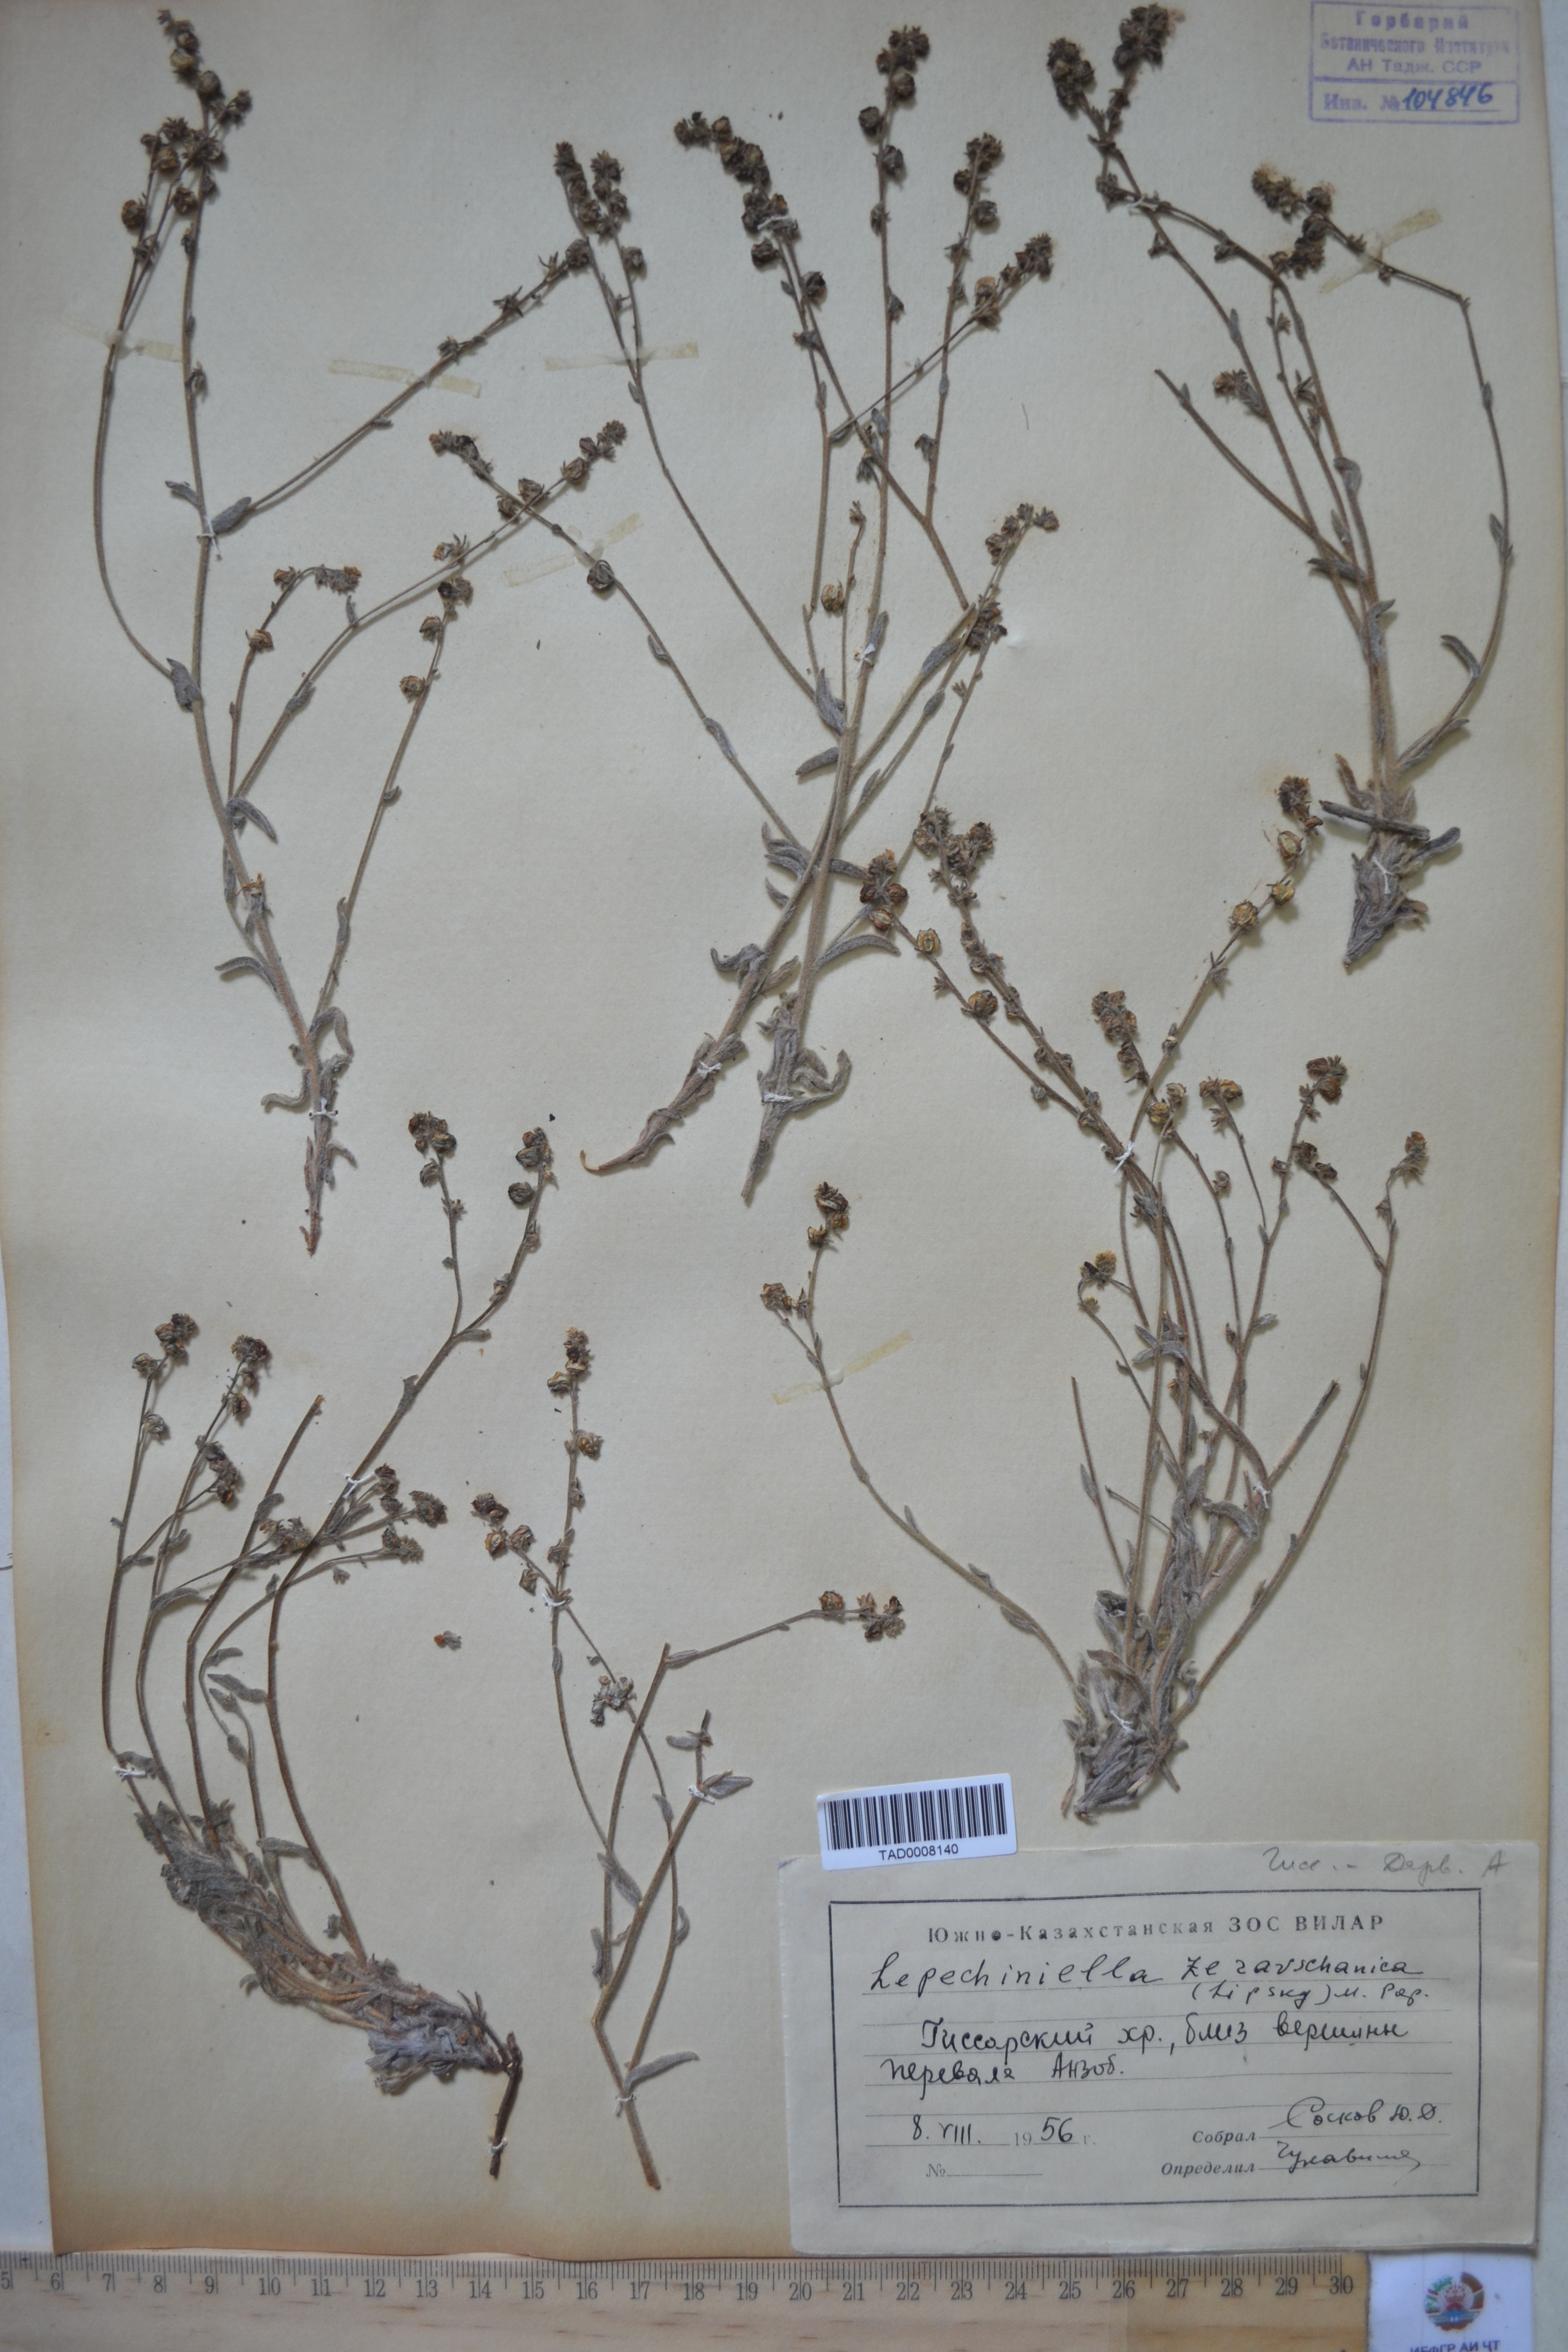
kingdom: Plantae
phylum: Tracheophyta
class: Magnoliopsida
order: Boraginales
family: Boraginaceae
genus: Lepechiniella
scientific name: Lepechiniella seravschanica
